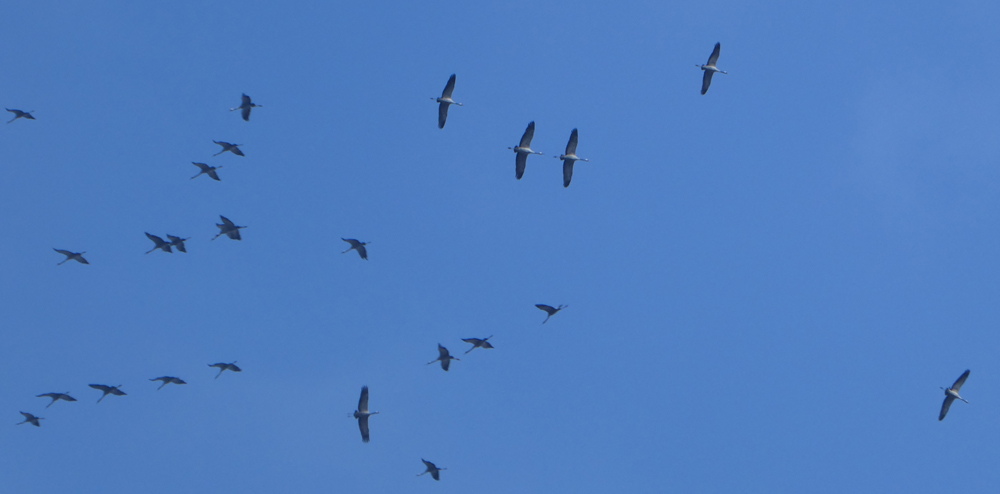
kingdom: Animalia
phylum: Chordata
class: Aves
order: Gruiformes
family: Gruidae
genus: Grus
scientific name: Grus grus
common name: Common crane
